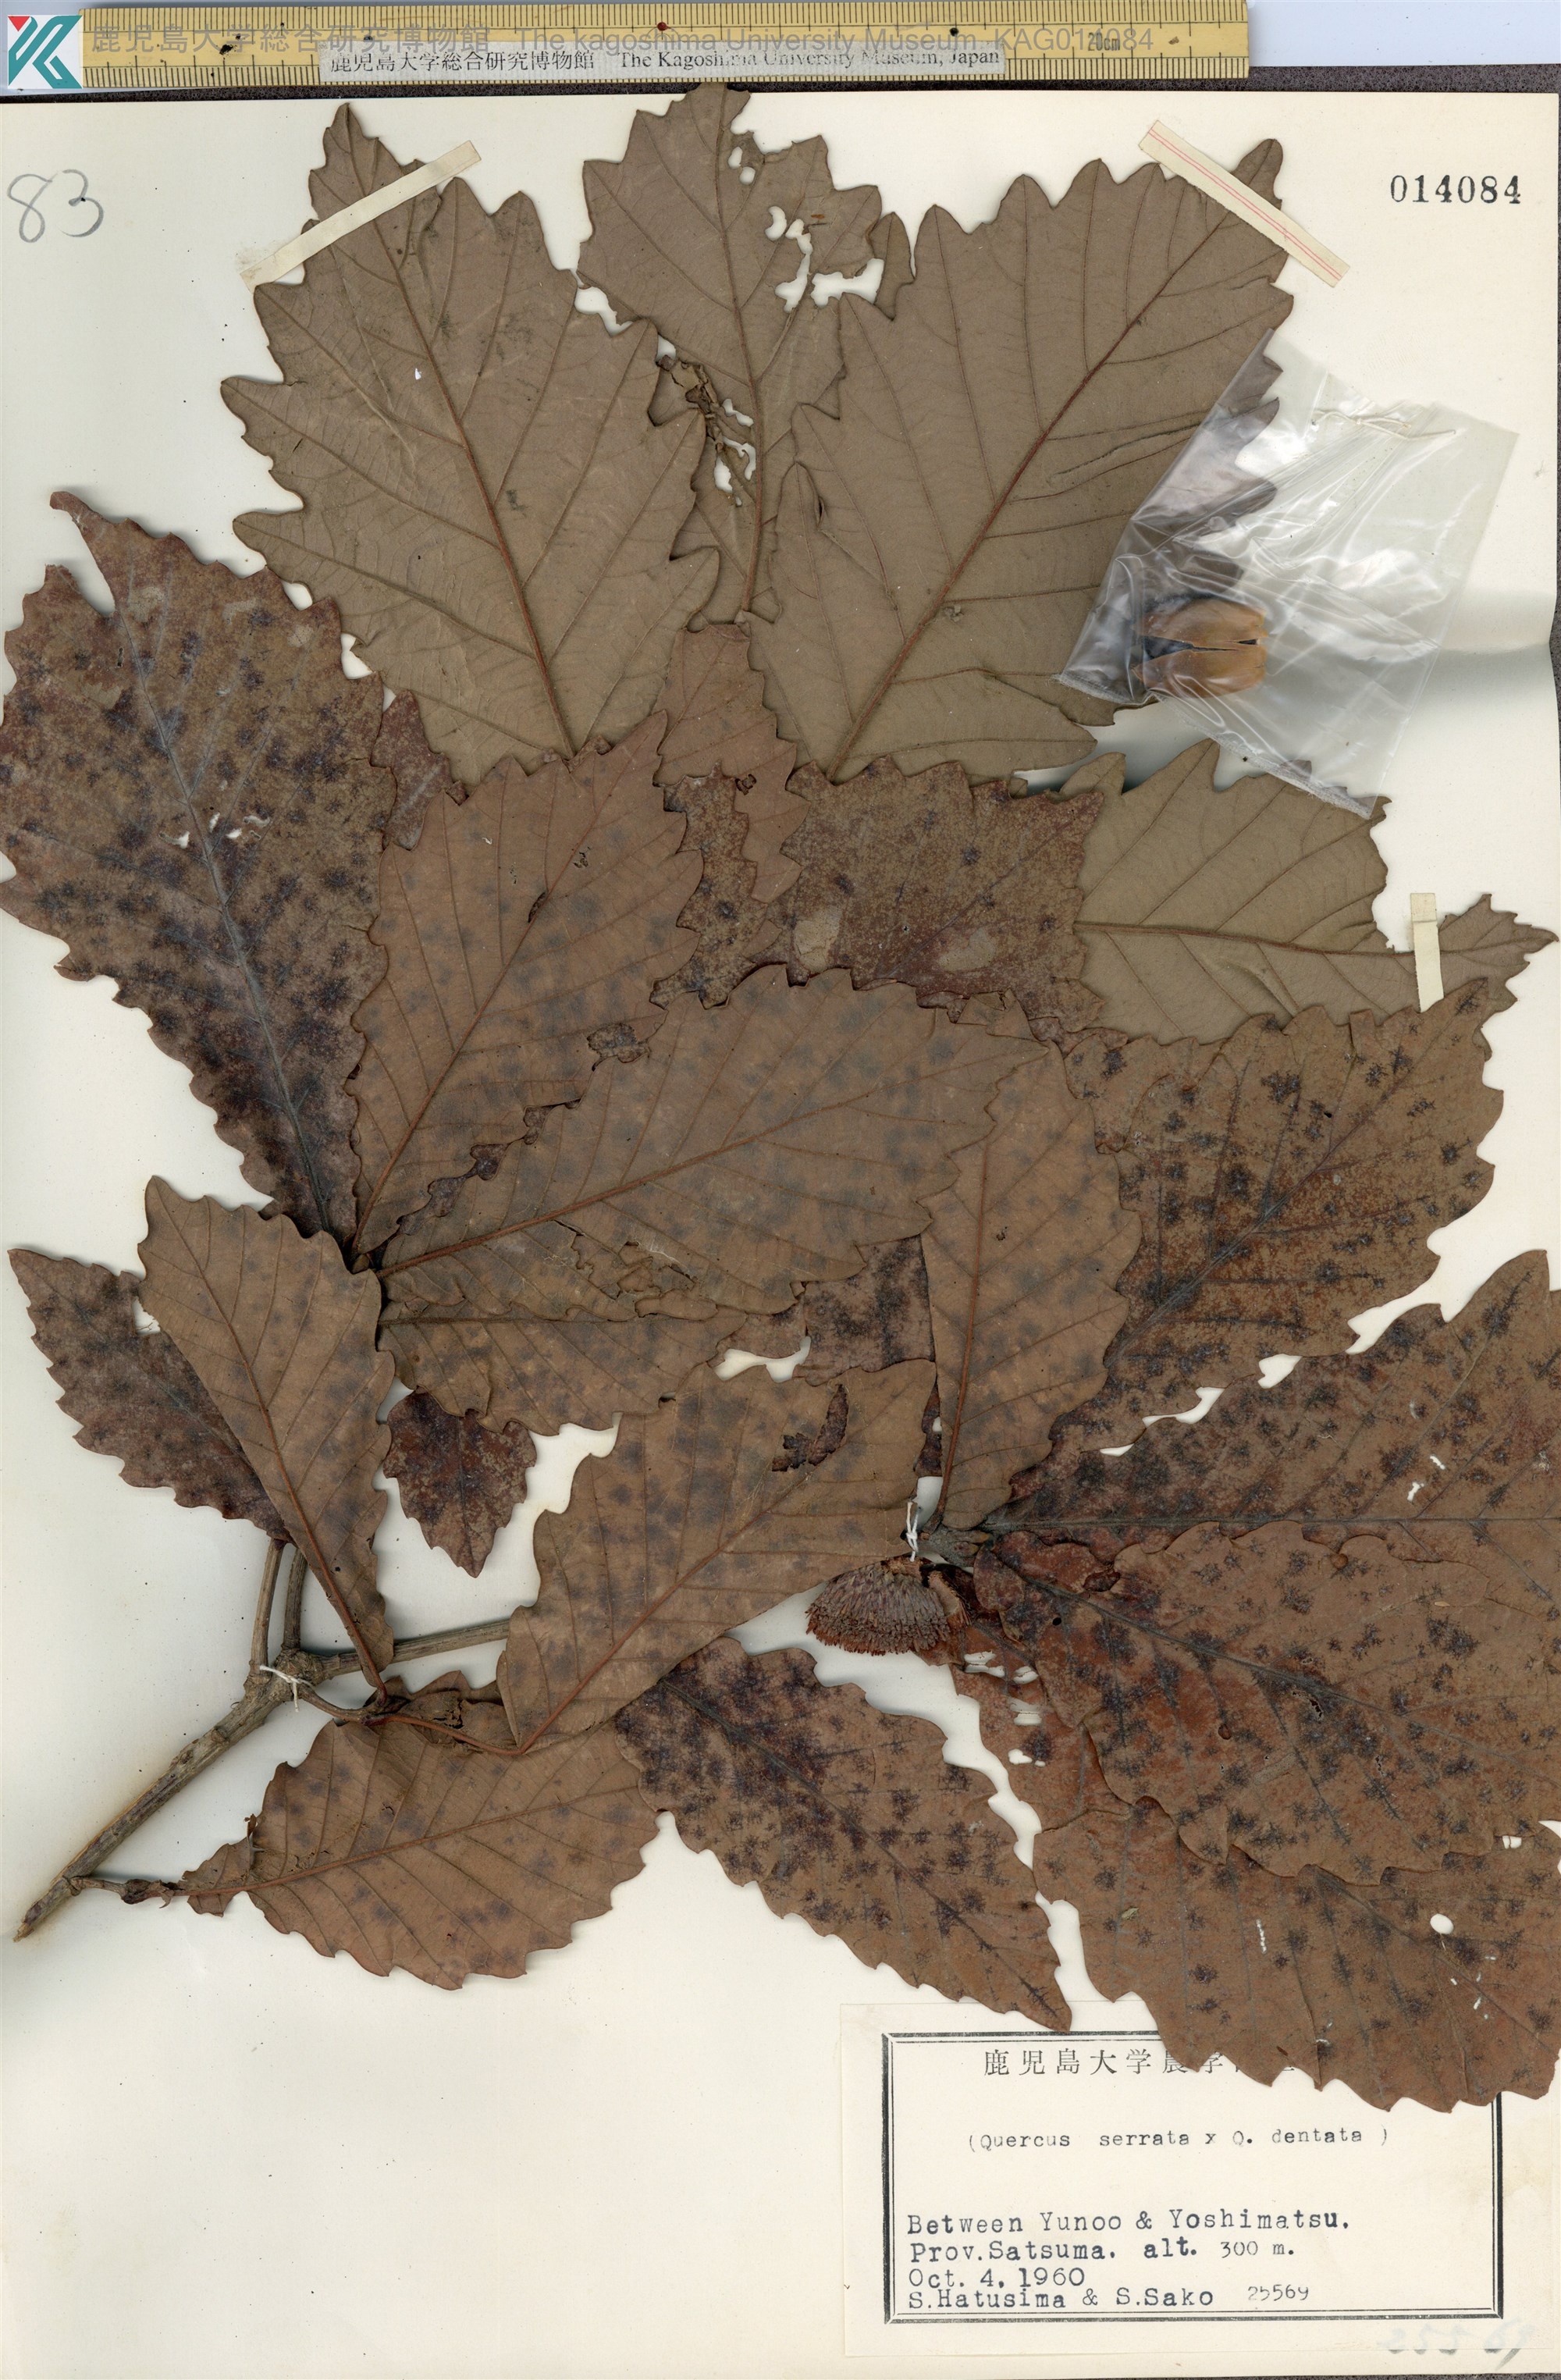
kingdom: Plantae
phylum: Tracheophyta
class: Magnoliopsida
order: Fagales
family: Fagaceae
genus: Quercus
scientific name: Quercus nipponica
